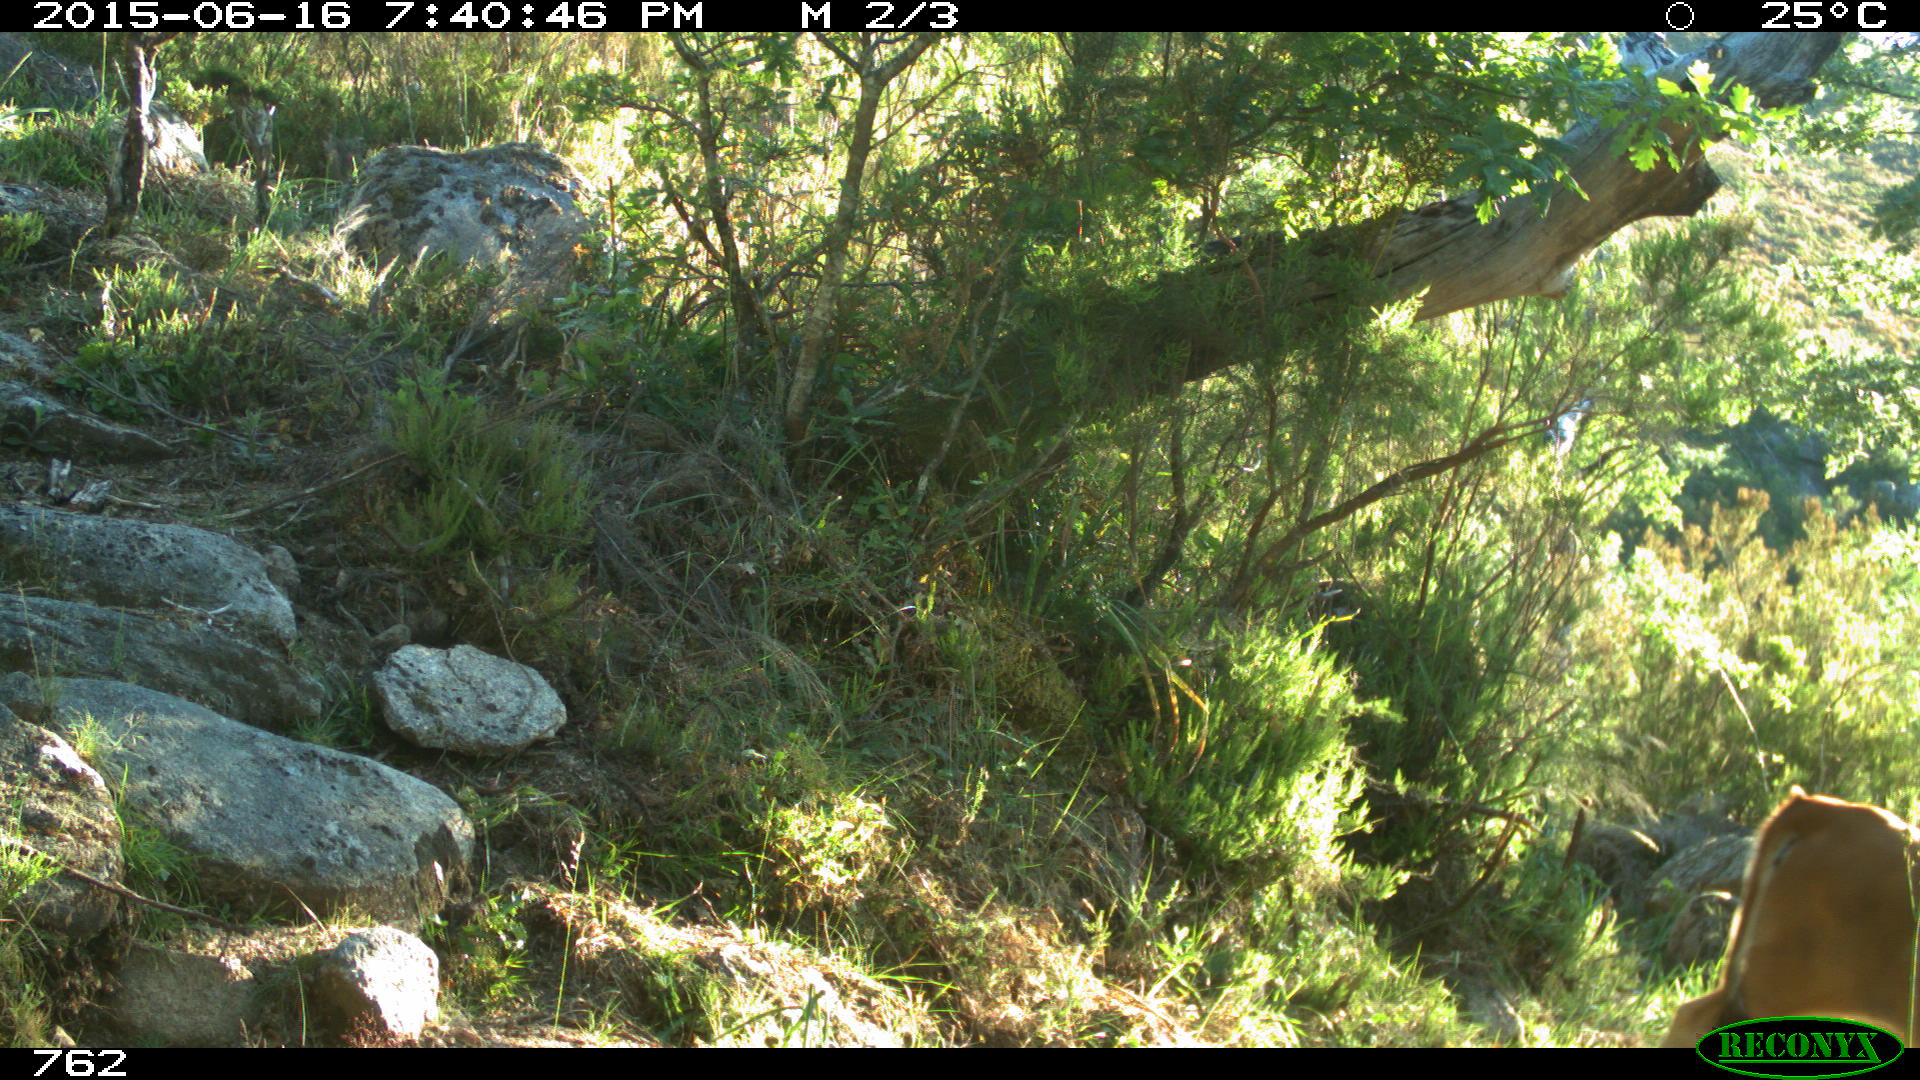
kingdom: Animalia
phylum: Chordata
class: Mammalia
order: Artiodactyla
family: Bovidae
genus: Bos
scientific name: Bos taurus
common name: Domesticated cattle
